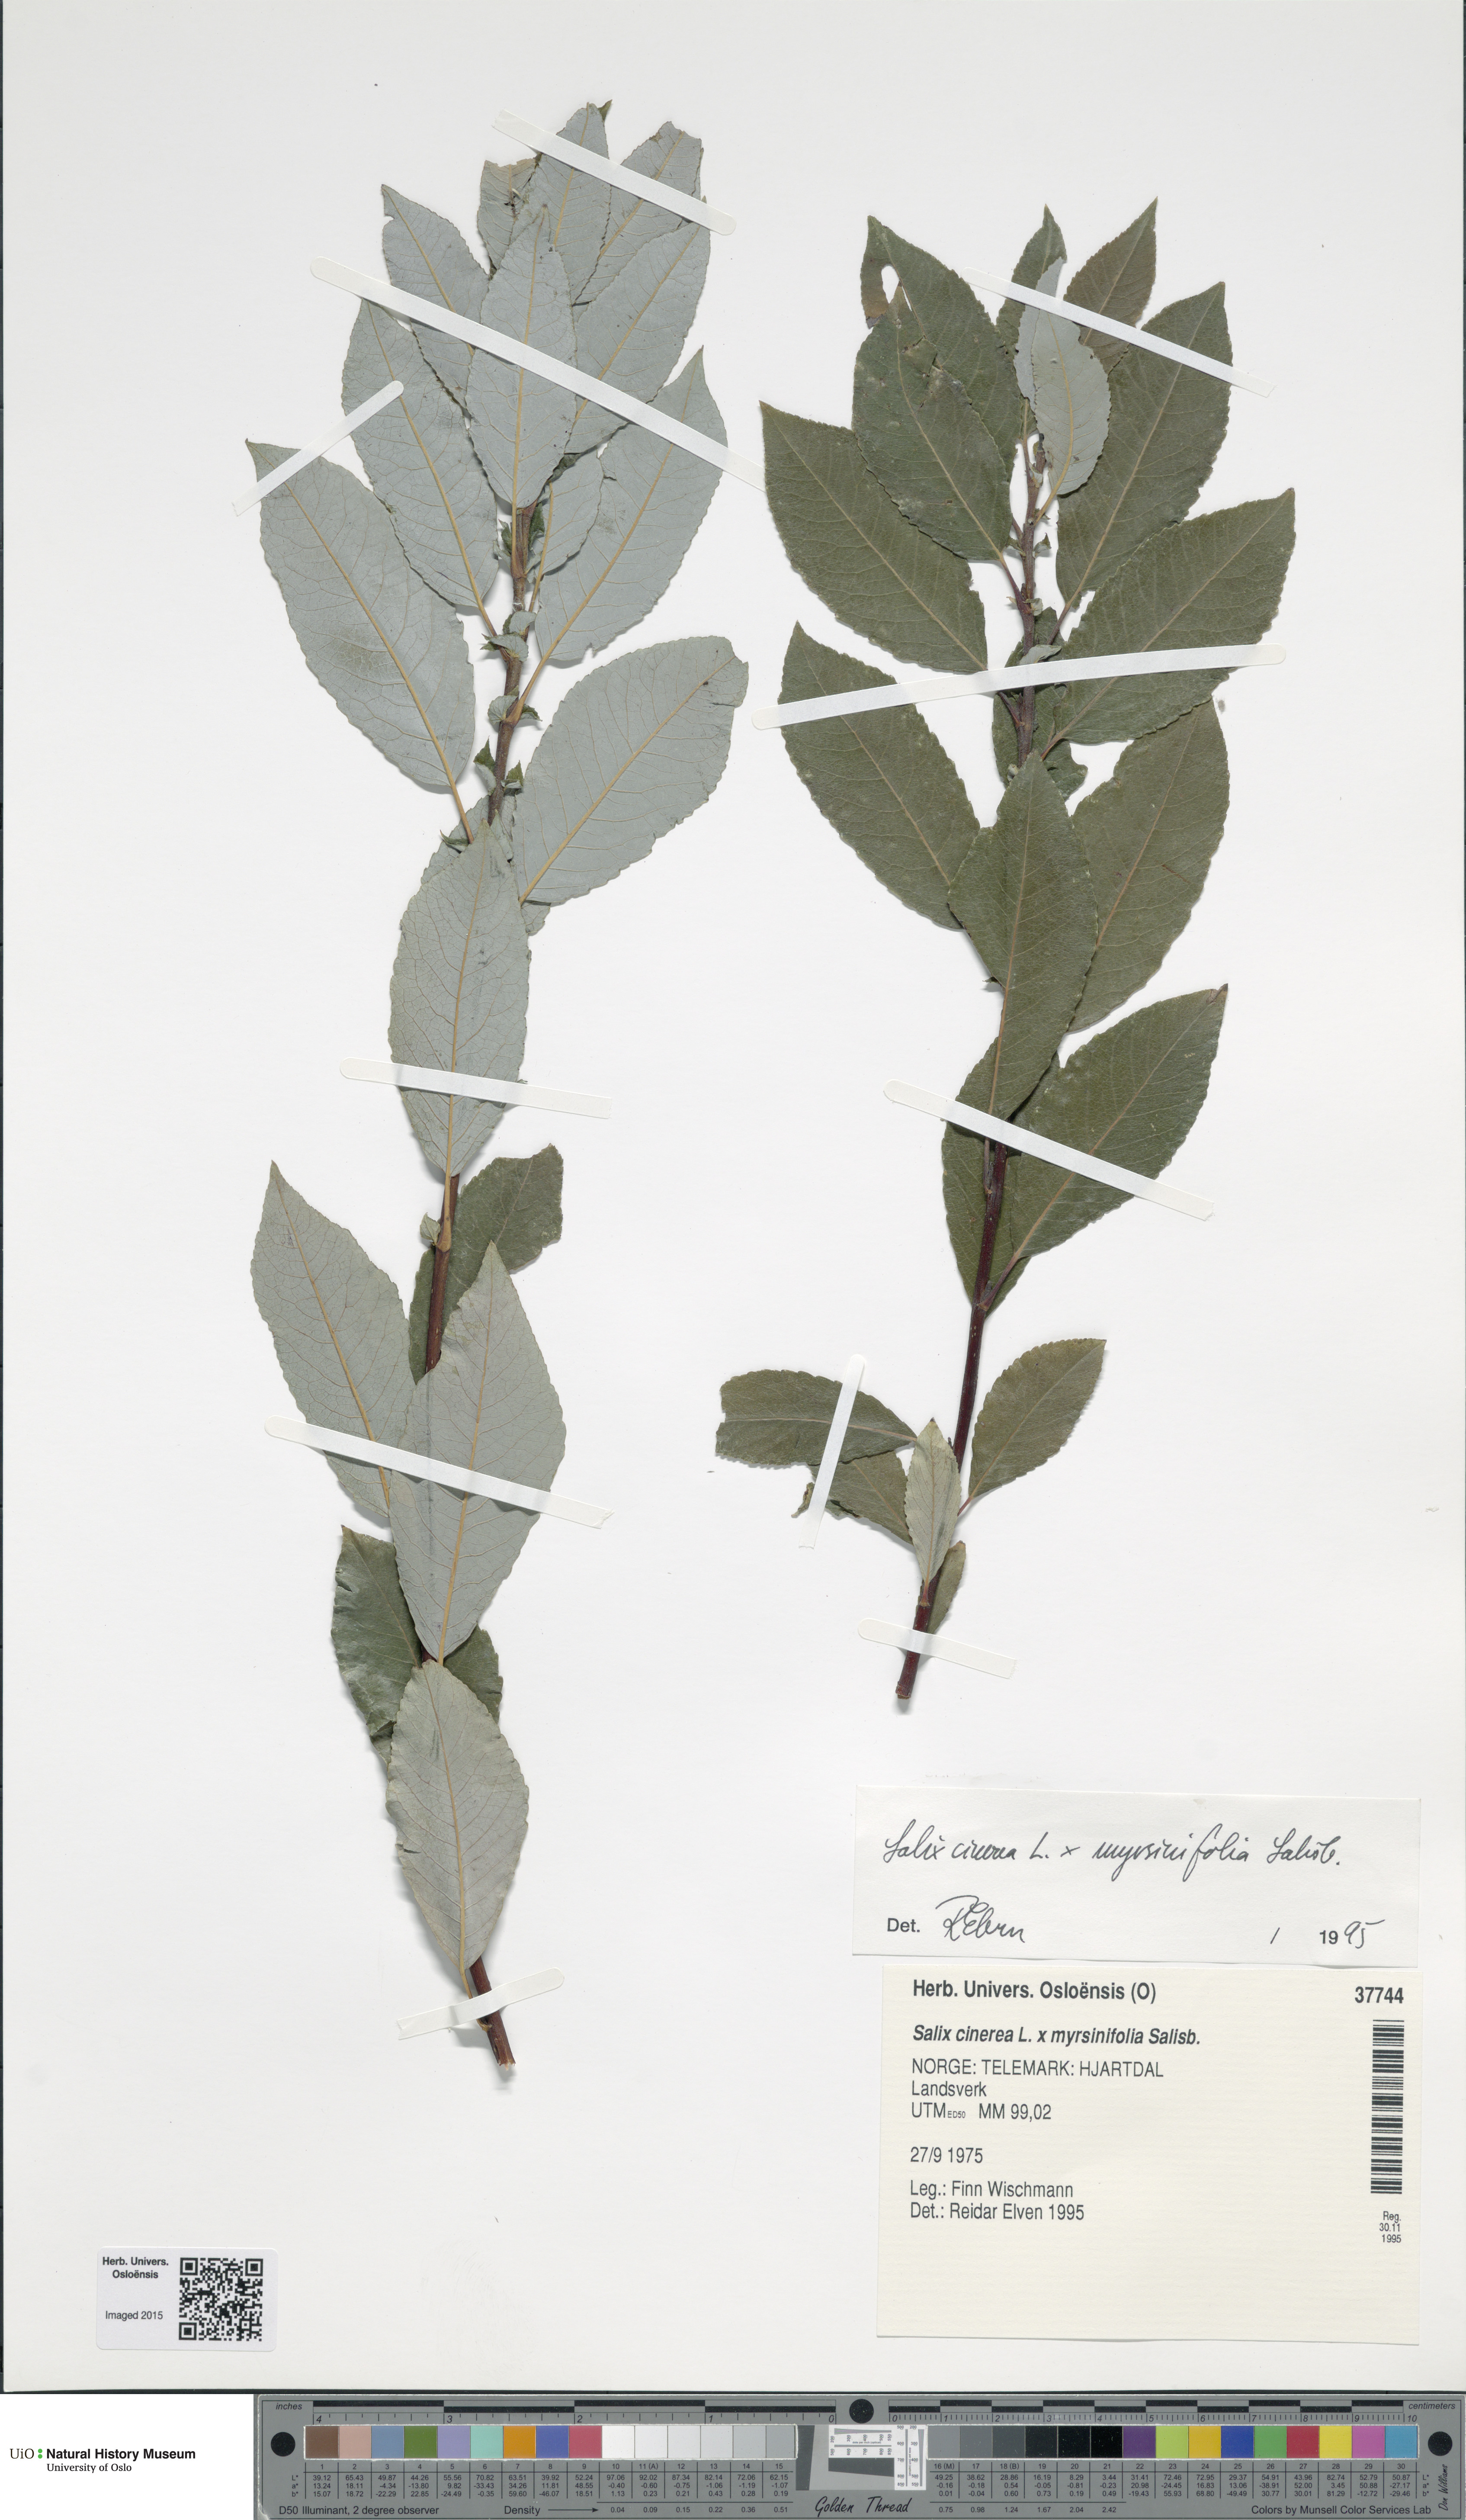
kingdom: Plantae
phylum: Tracheophyta
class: Magnoliopsida
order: Malpighiales
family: Salicaceae
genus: Salix
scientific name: Salix
